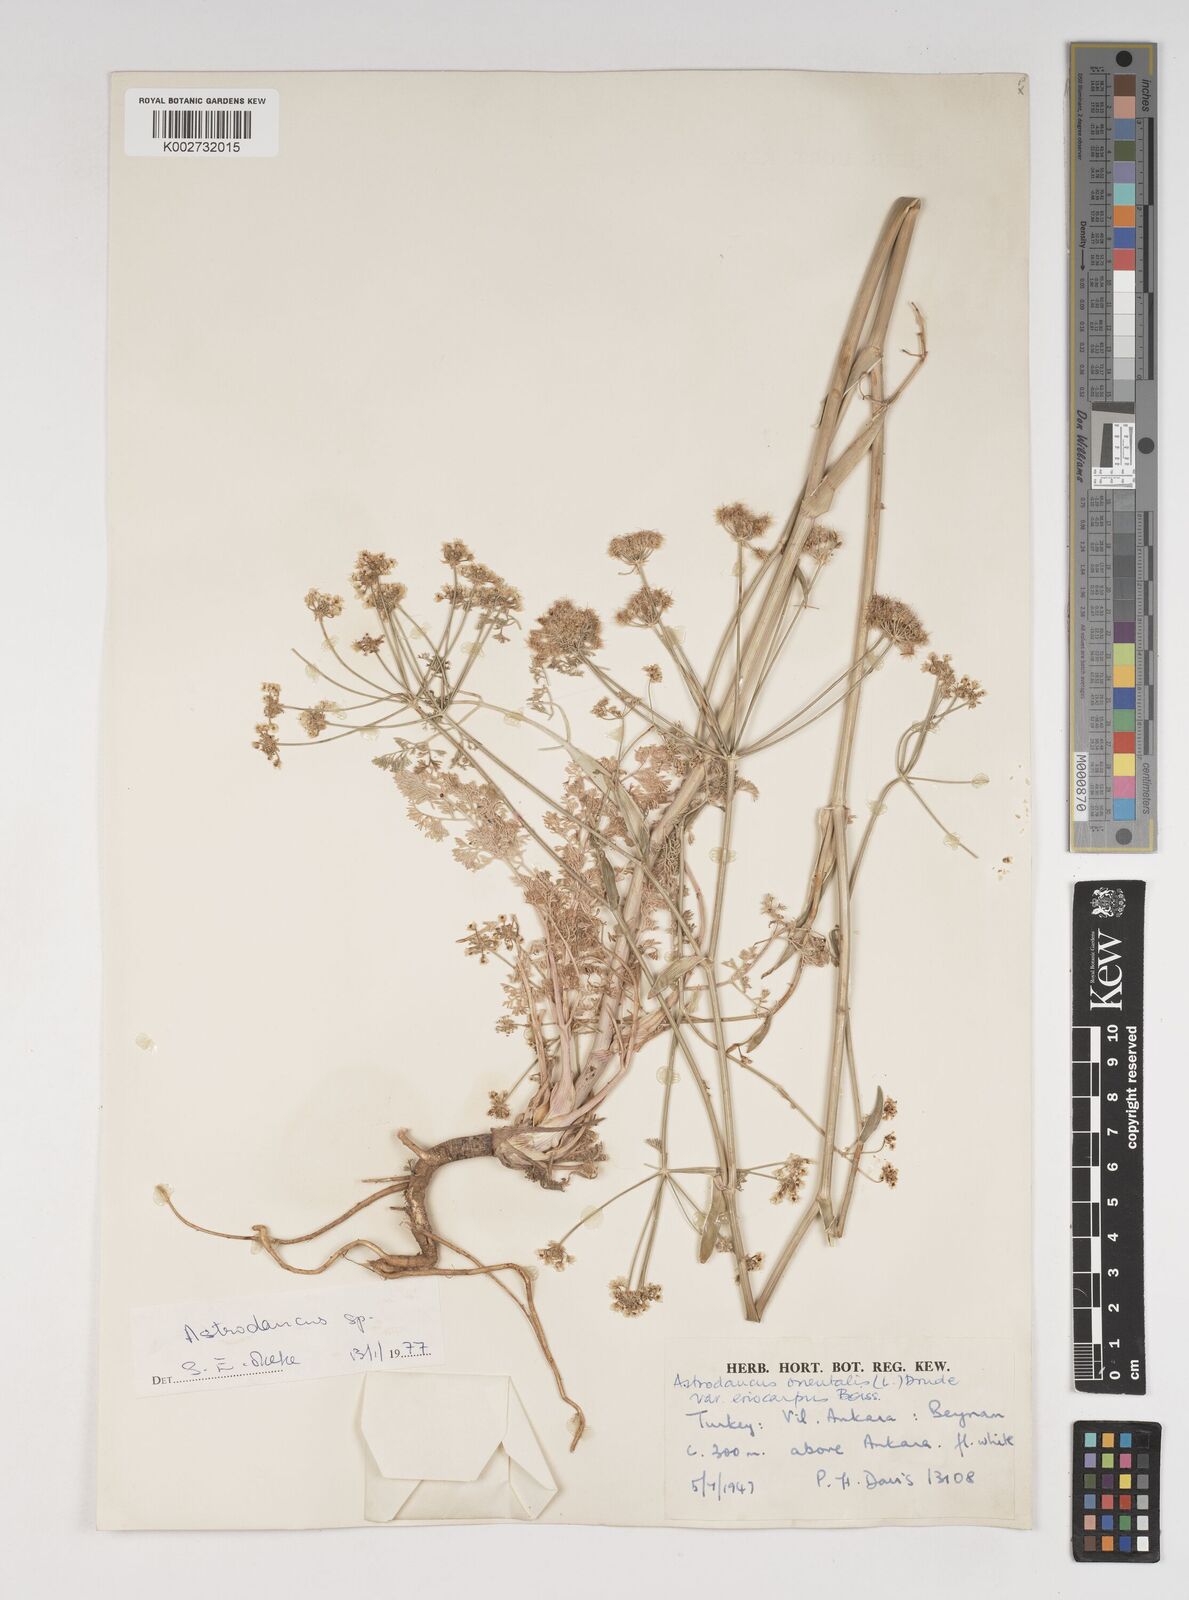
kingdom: Plantae
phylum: Tracheophyta
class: Magnoliopsida
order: Apiales
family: Apiaceae
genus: Astrodaucus
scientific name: Astrodaucus
